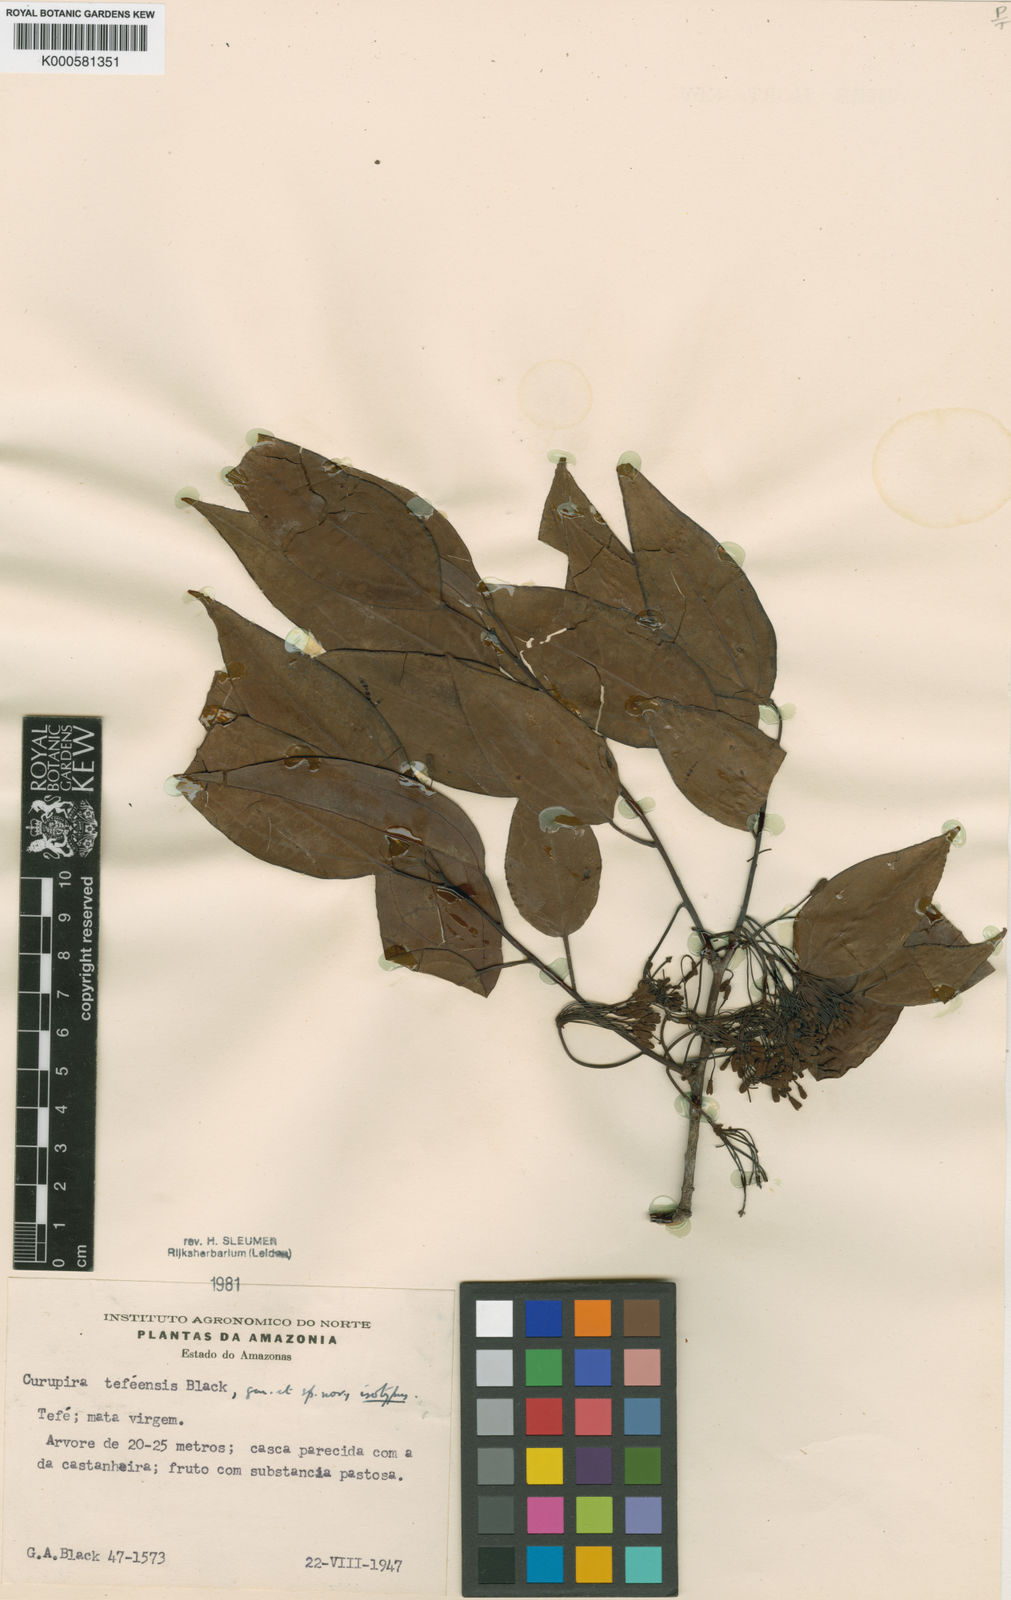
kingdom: Plantae
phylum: Tracheophyta
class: Magnoliopsida
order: Santalales
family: Ximeniaceae
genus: Curupira
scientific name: Curupira tefeensis
